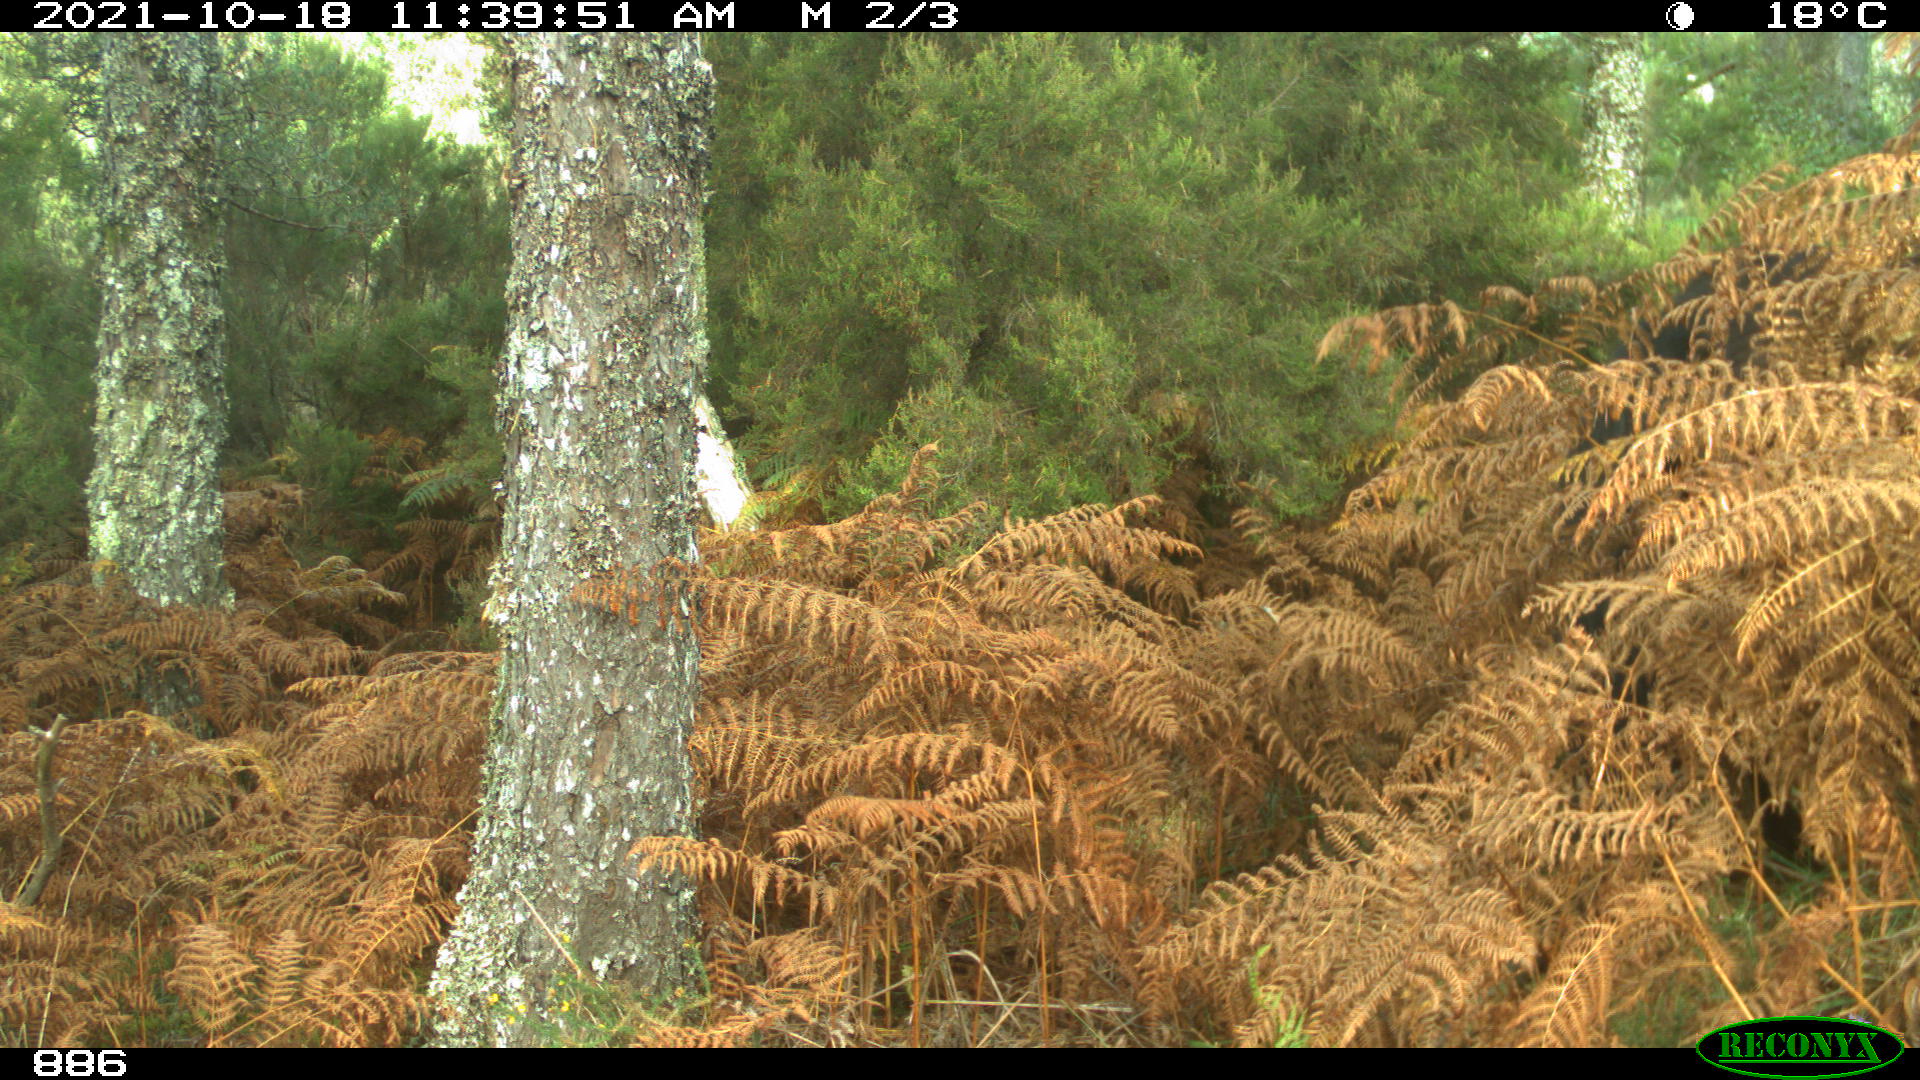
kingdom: Animalia
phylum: Chordata
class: Mammalia
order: Perissodactyla
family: Equidae
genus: Equus
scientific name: Equus caballus
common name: Horse
